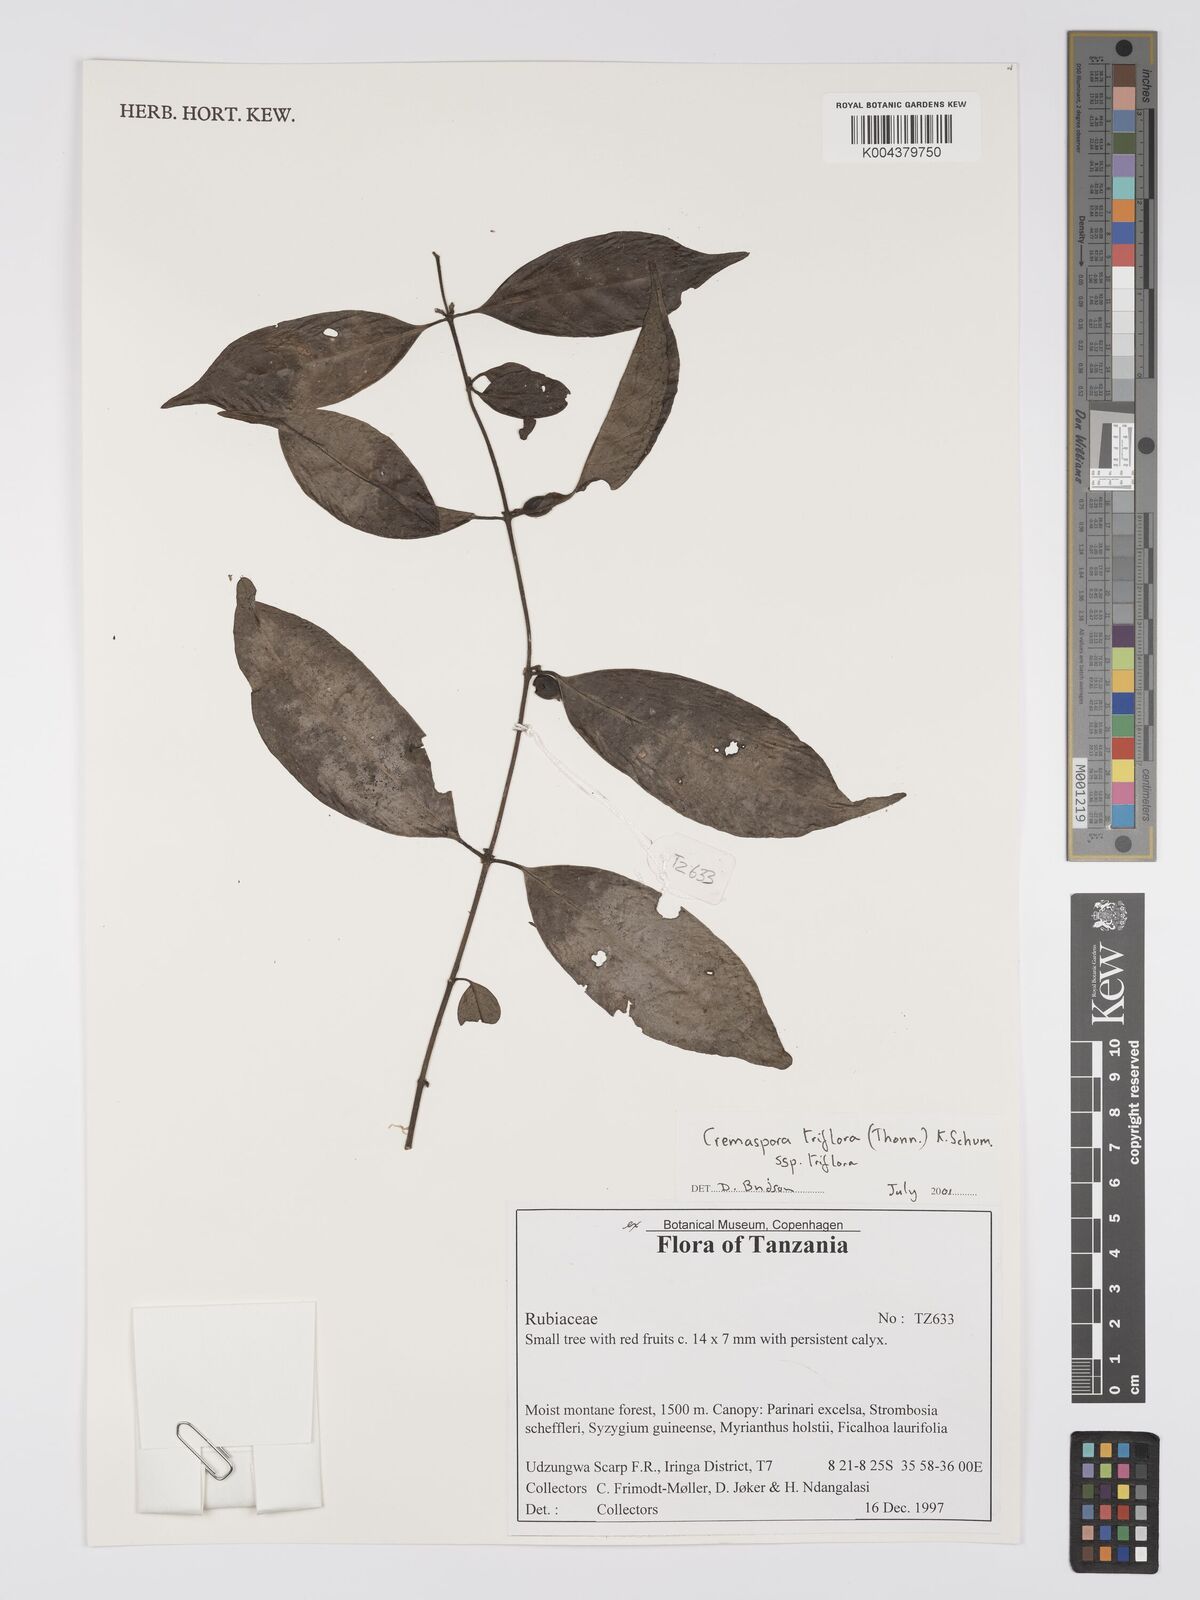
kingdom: Plantae
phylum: Tracheophyta
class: Magnoliopsida
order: Gentianales
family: Rubiaceae
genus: Cremaspora
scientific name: Cremaspora triflora
